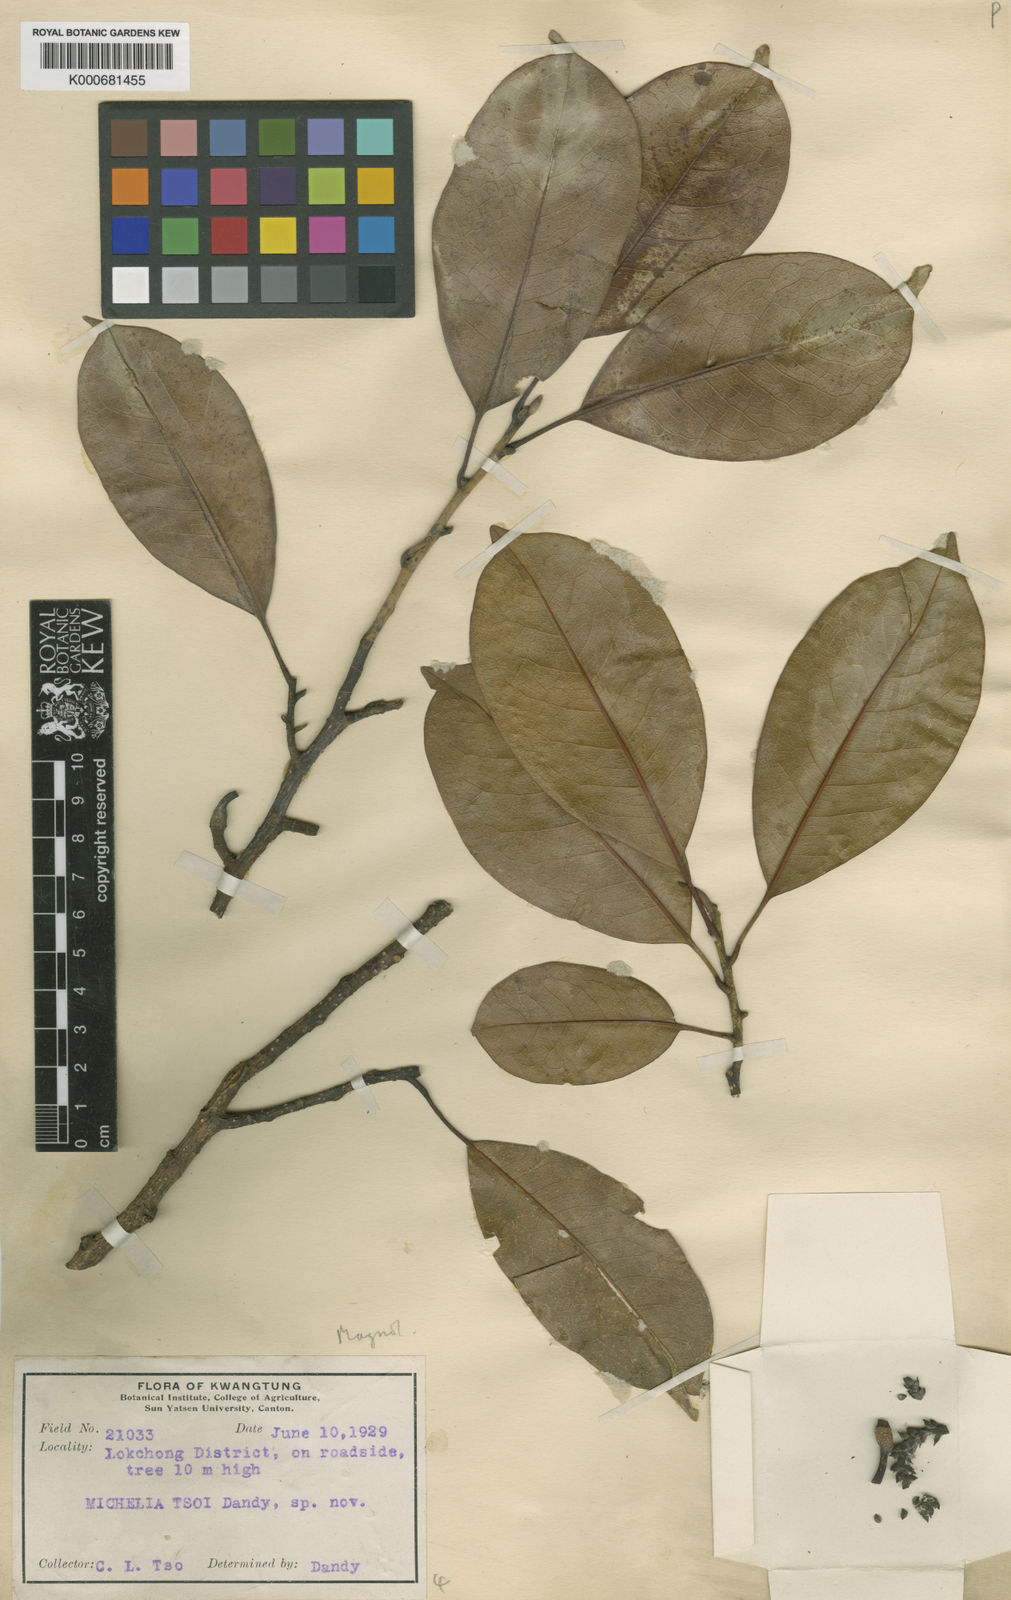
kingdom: Plantae
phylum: Tracheophyta
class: Magnoliopsida
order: Magnoliales
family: Magnoliaceae
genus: Magnolia
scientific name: Magnolia chapensis
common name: Prosperous music smiling tree
